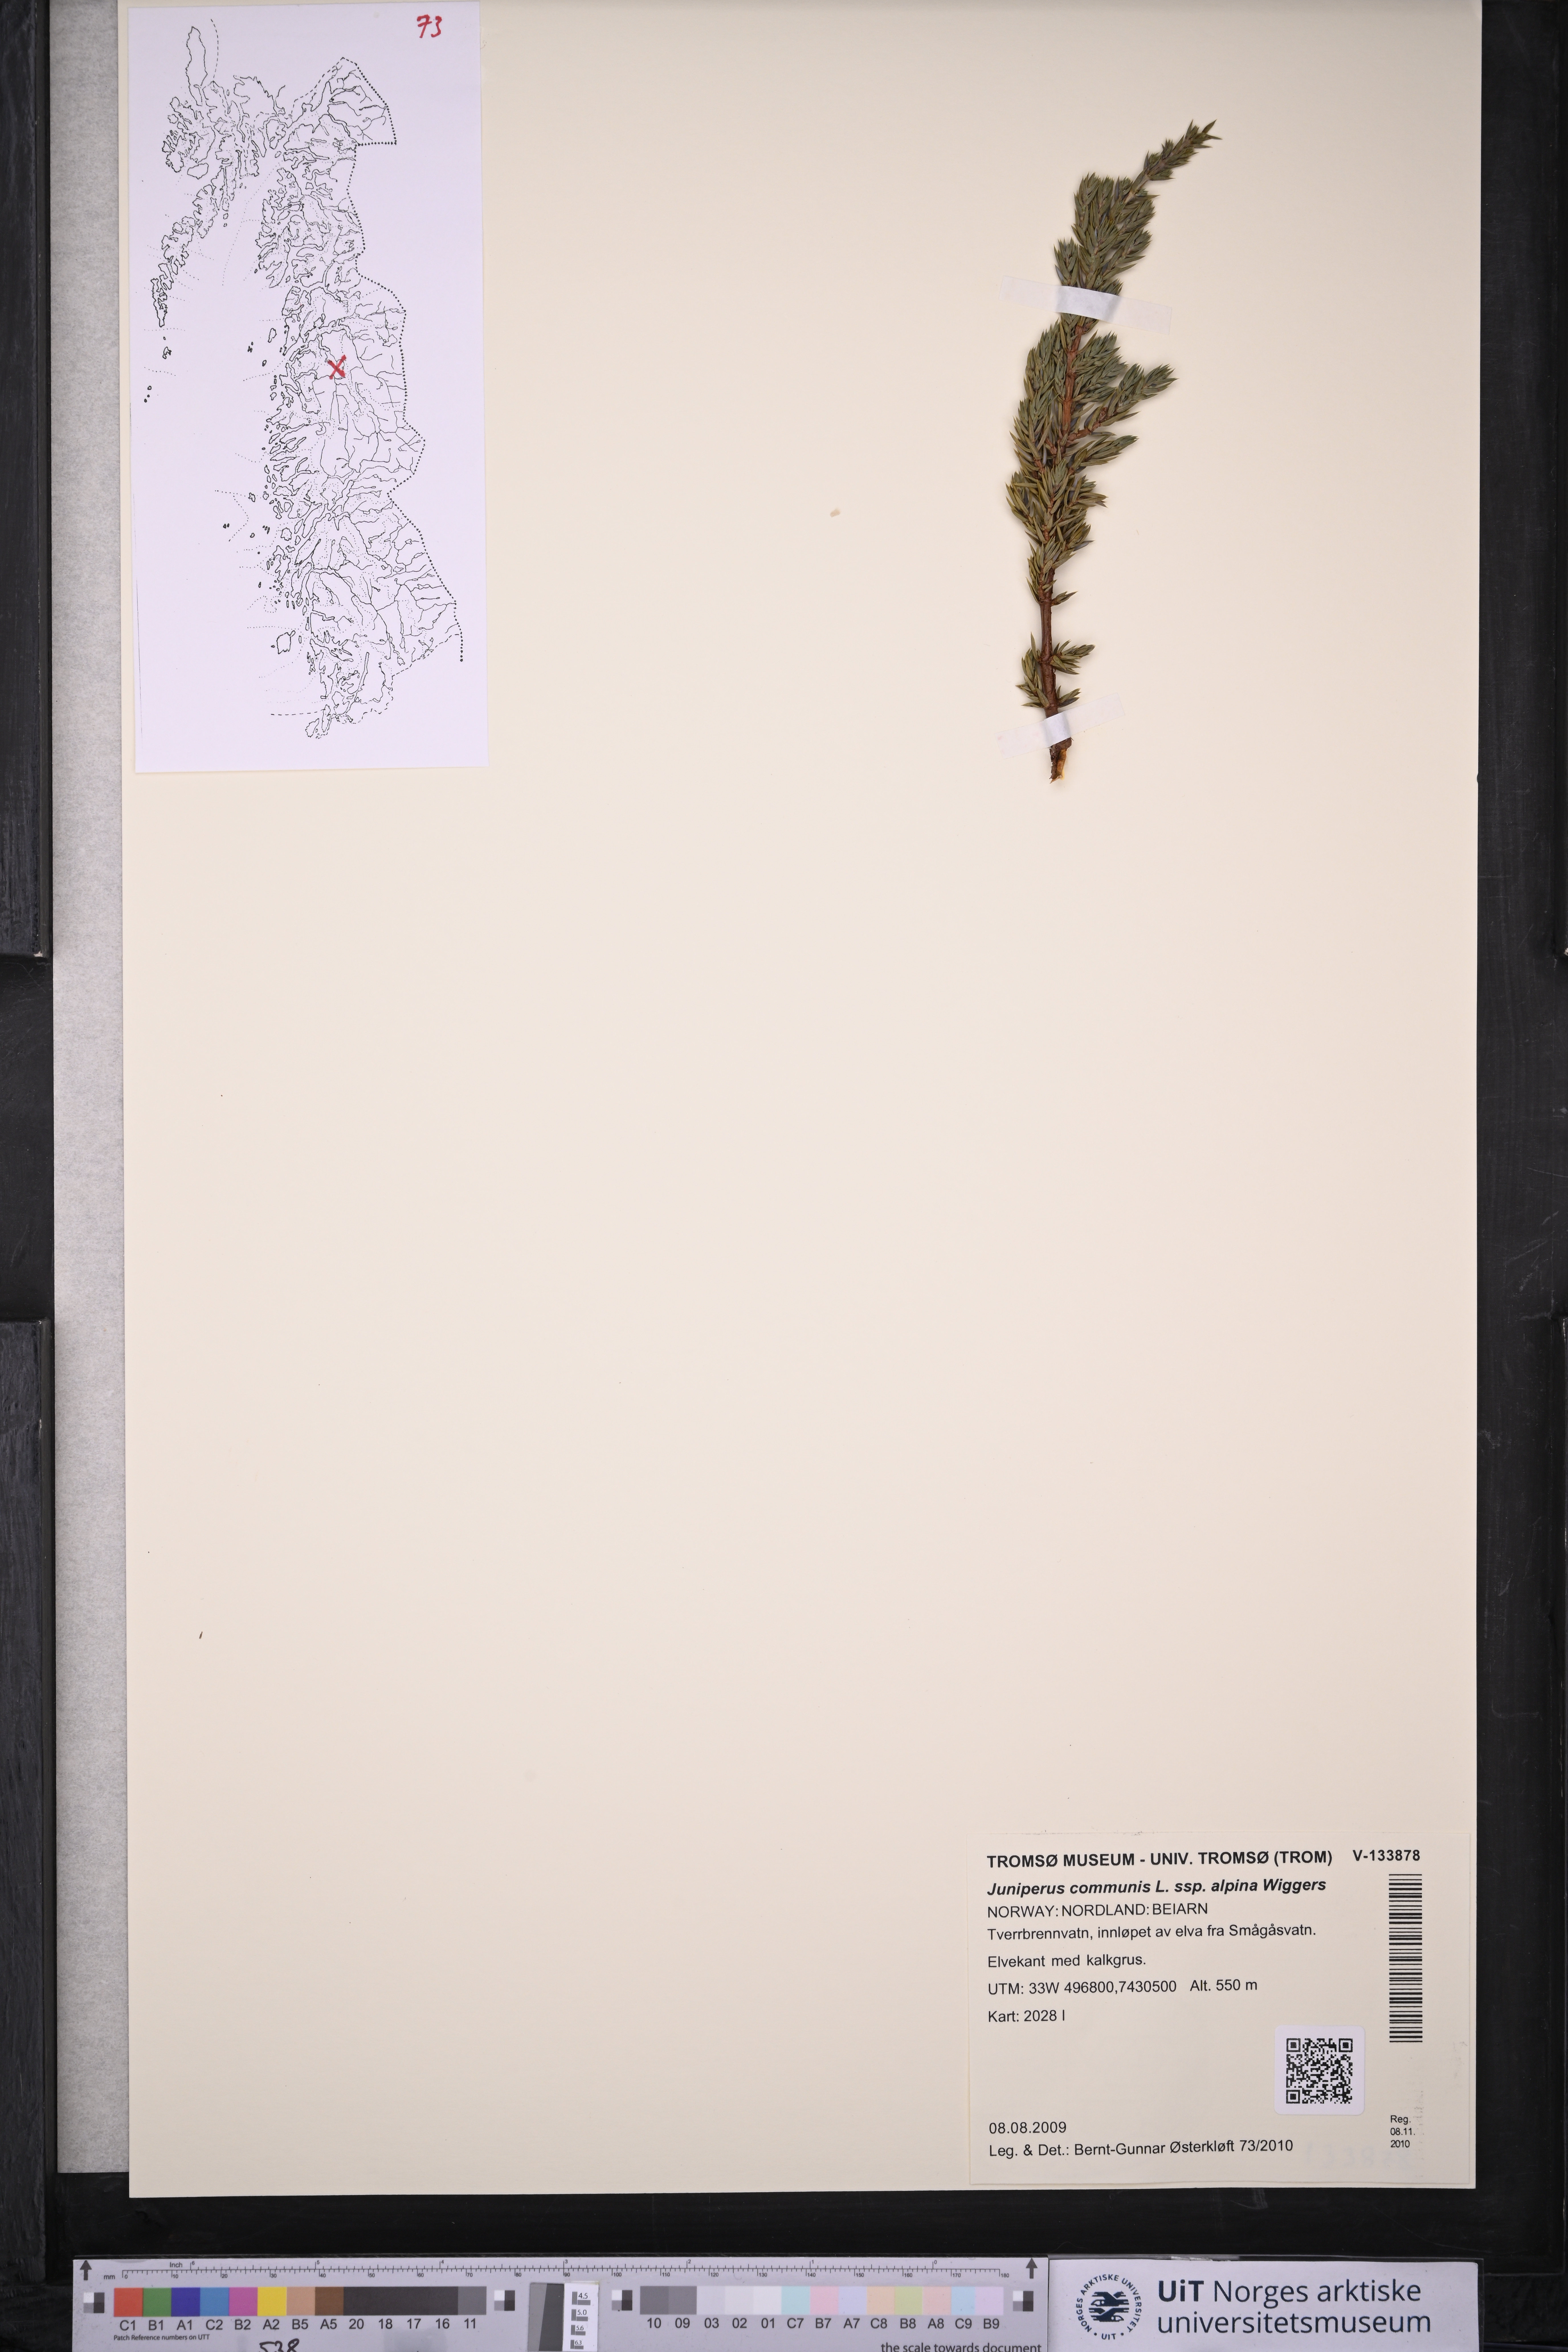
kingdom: Plantae
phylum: Tracheophyta
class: Pinopsida
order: Pinales
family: Cupressaceae
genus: Juniperus
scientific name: Juniperus communis
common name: Common juniper
